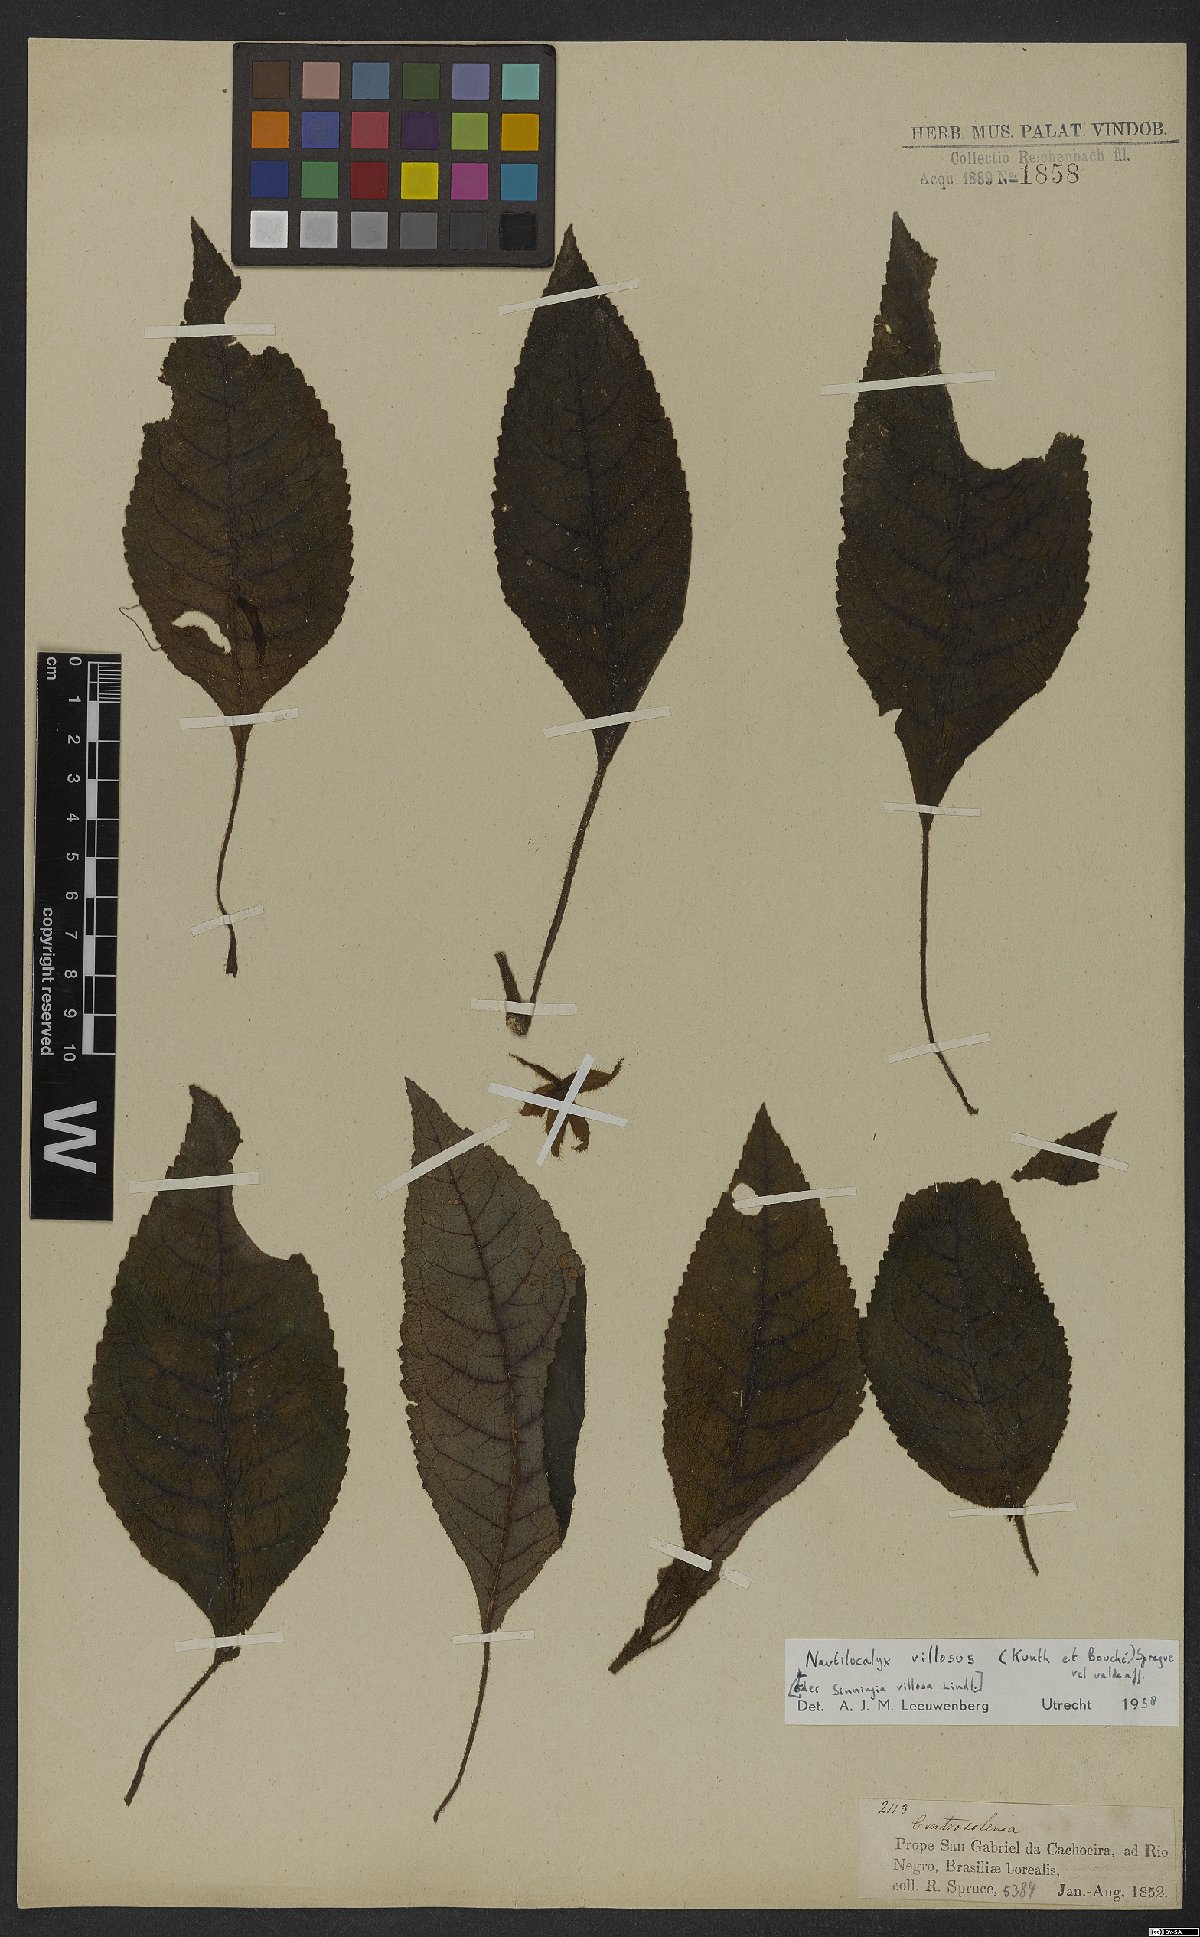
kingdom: Plantae
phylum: Tracheophyta
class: Magnoliopsida
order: Lamiales
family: Gesneriaceae
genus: Nautilocalyx
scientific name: Nautilocalyx villosus
